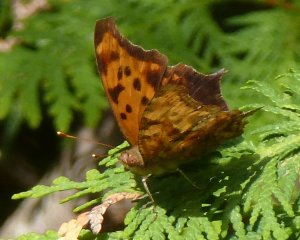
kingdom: Animalia
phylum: Arthropoda
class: Insecta
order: Lepidoptera
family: Nymphalidae
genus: Polygonia
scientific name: Polygonia interrogationis
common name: Question Mark
